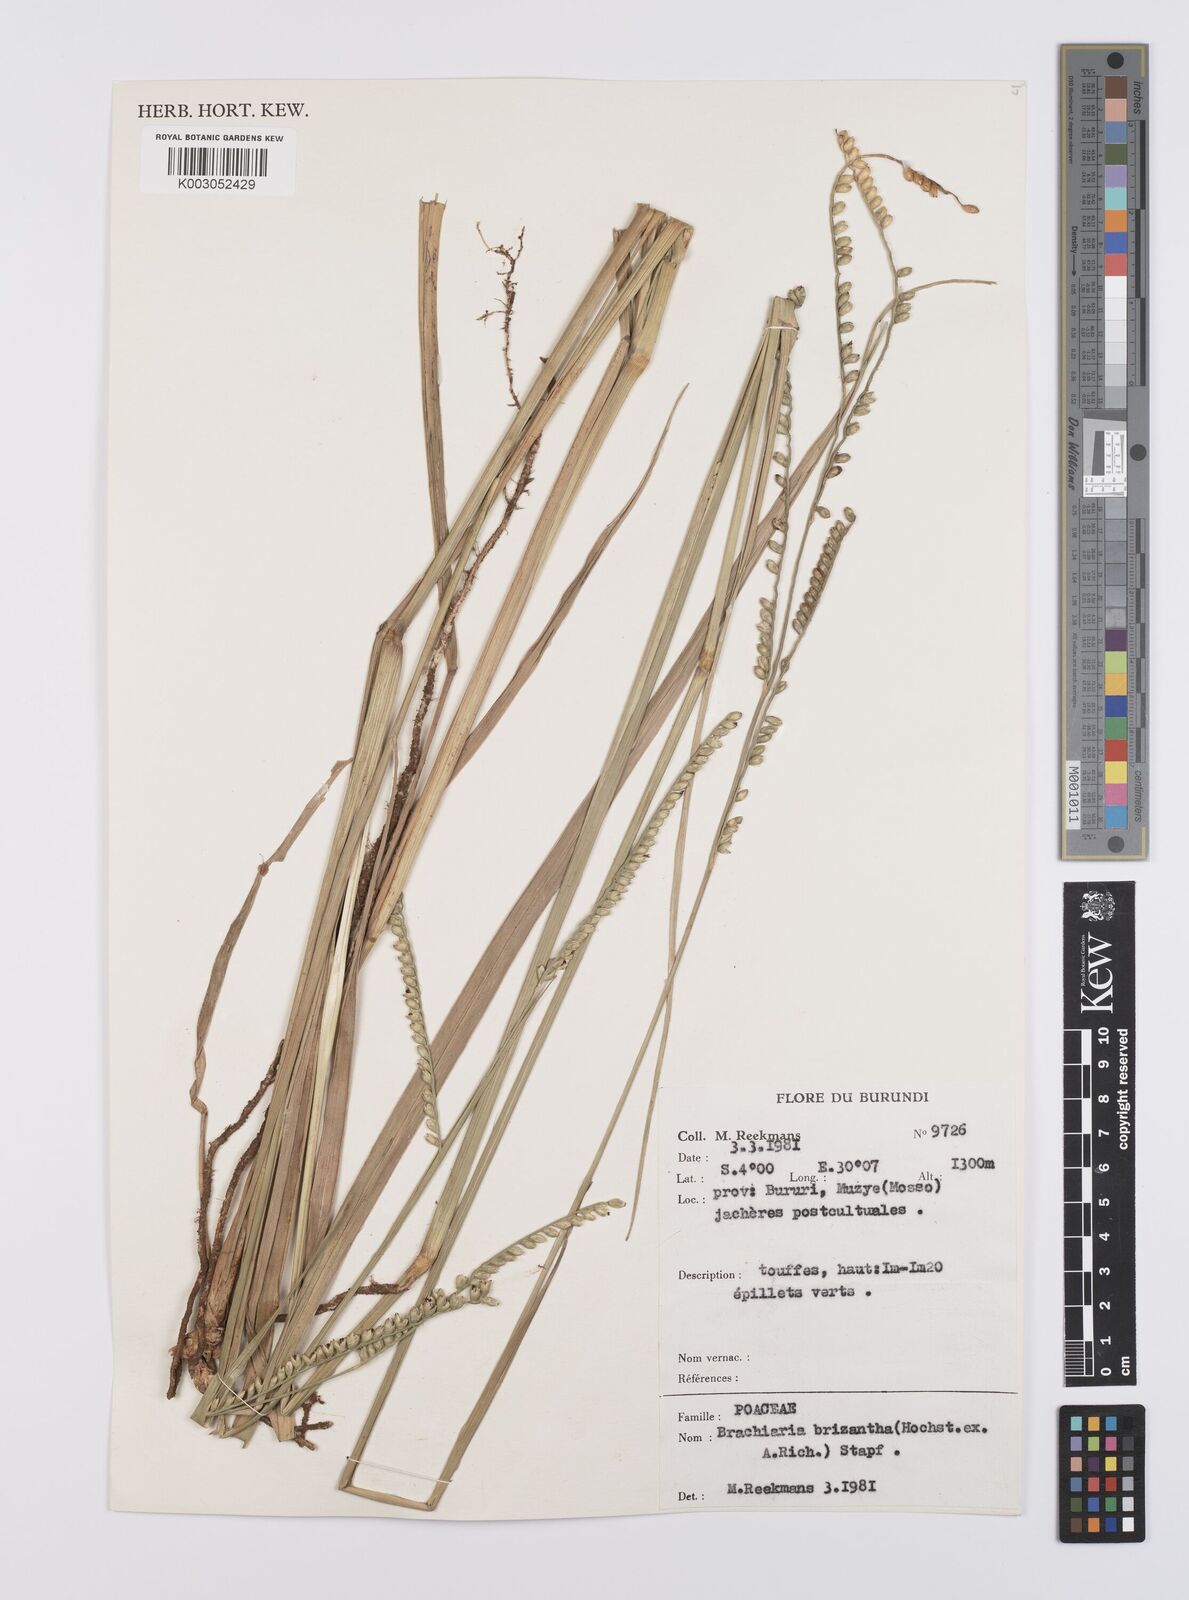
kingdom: Plantae
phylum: Tracheophyta
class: Liliopsida
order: Poales
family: Poaceae
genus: Urochloa
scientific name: Urochloa brizantha
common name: Palisade signalgrass
